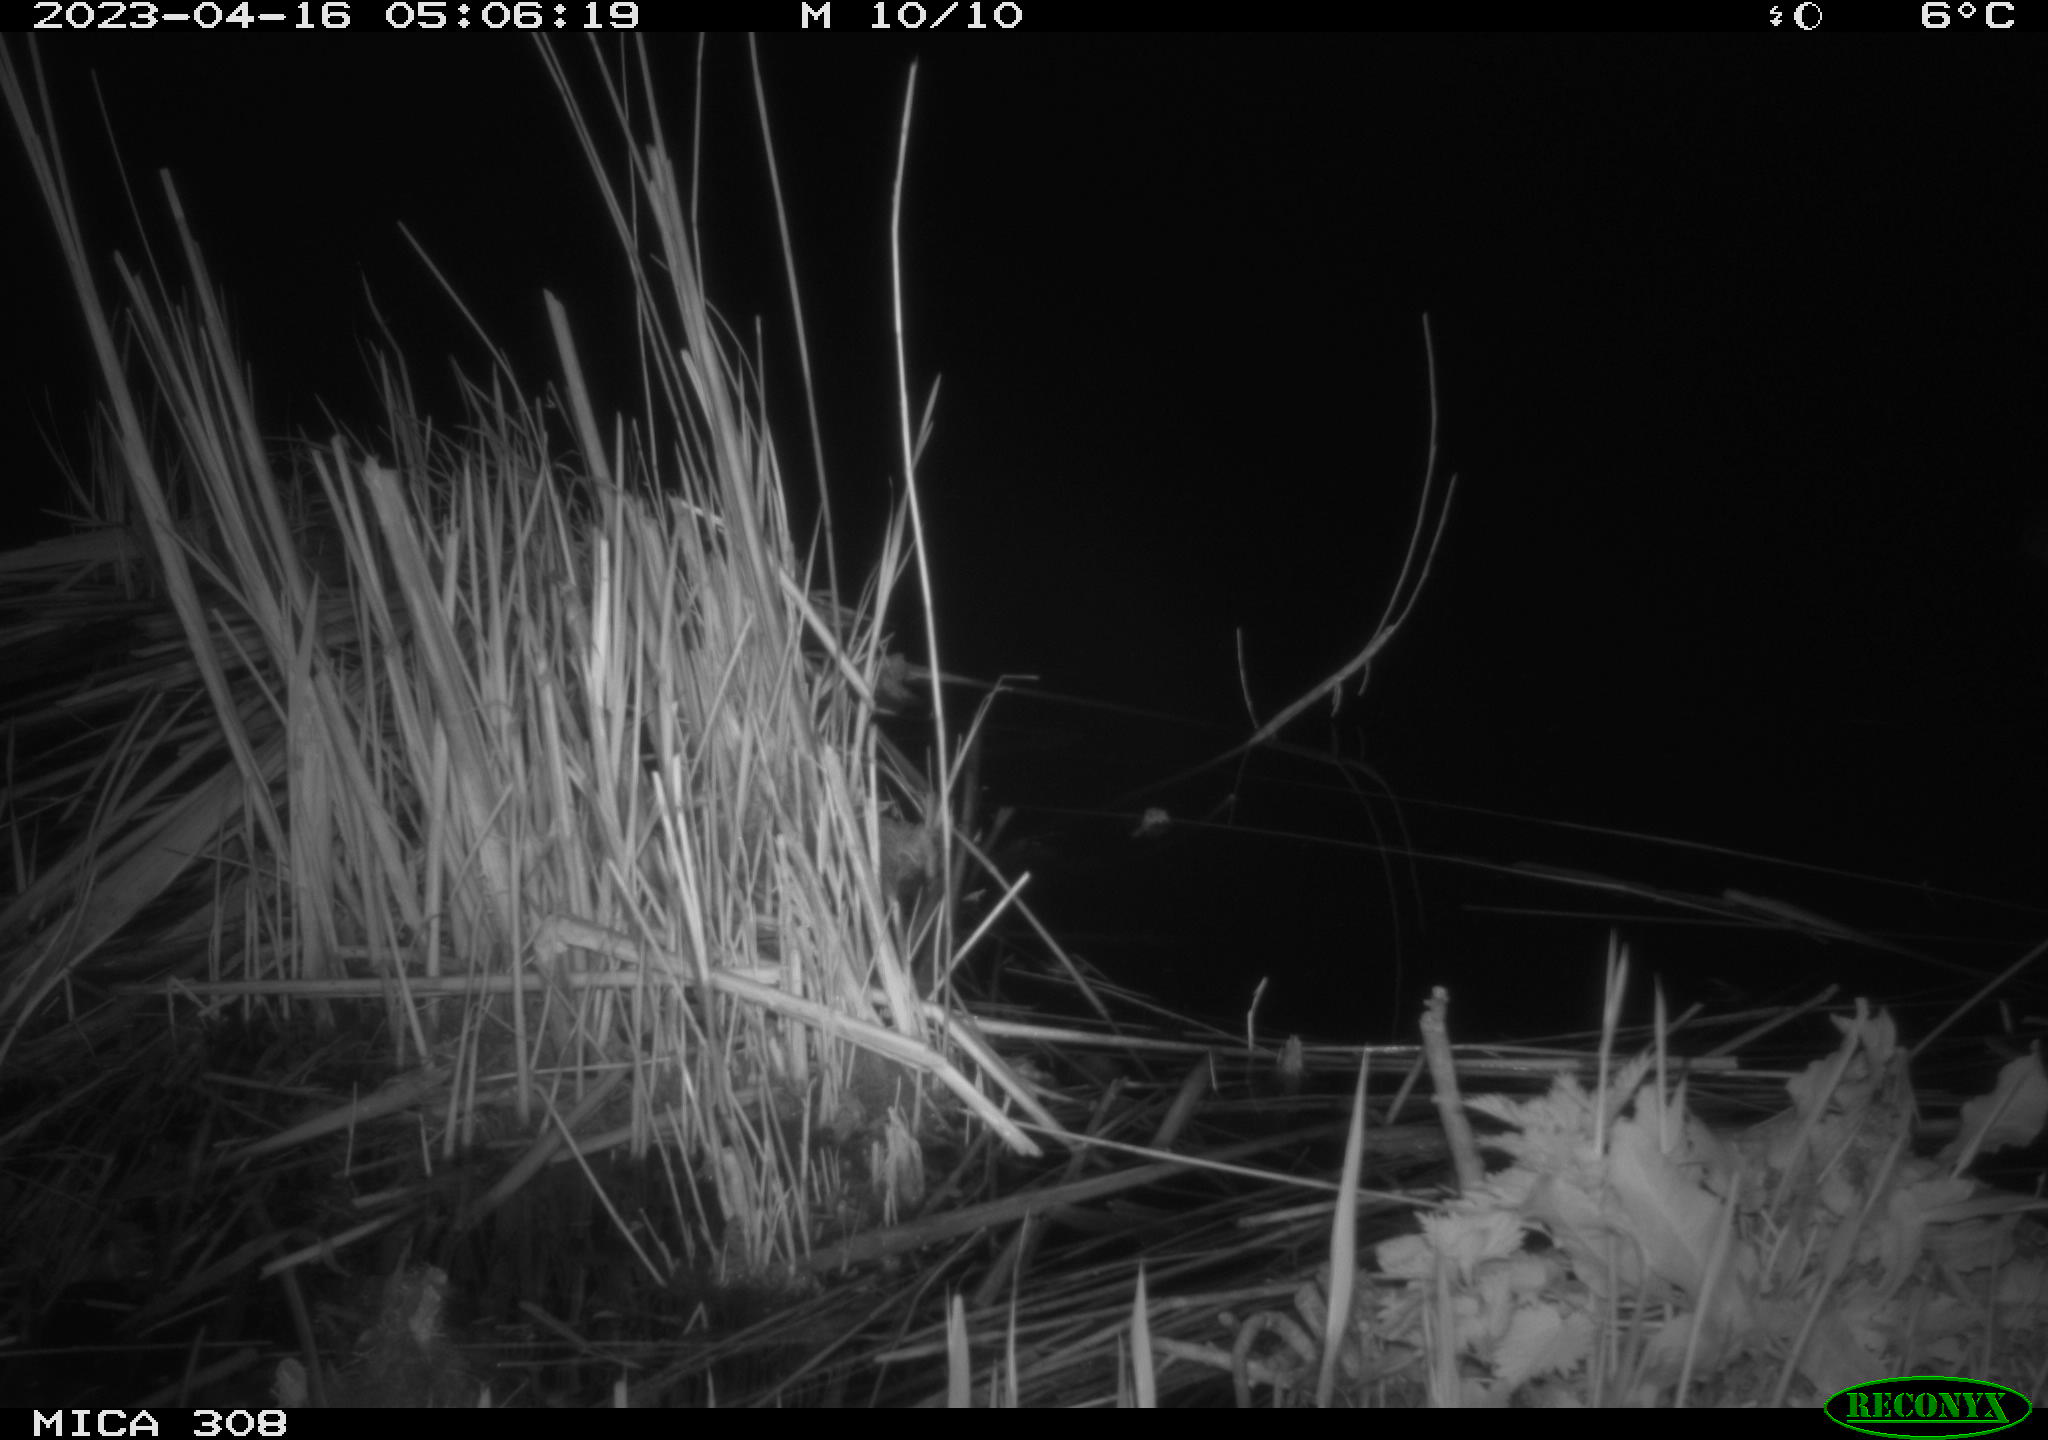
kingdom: Animalia
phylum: Chordata
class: Mammalia
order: Rodentia
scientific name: Rodentia
